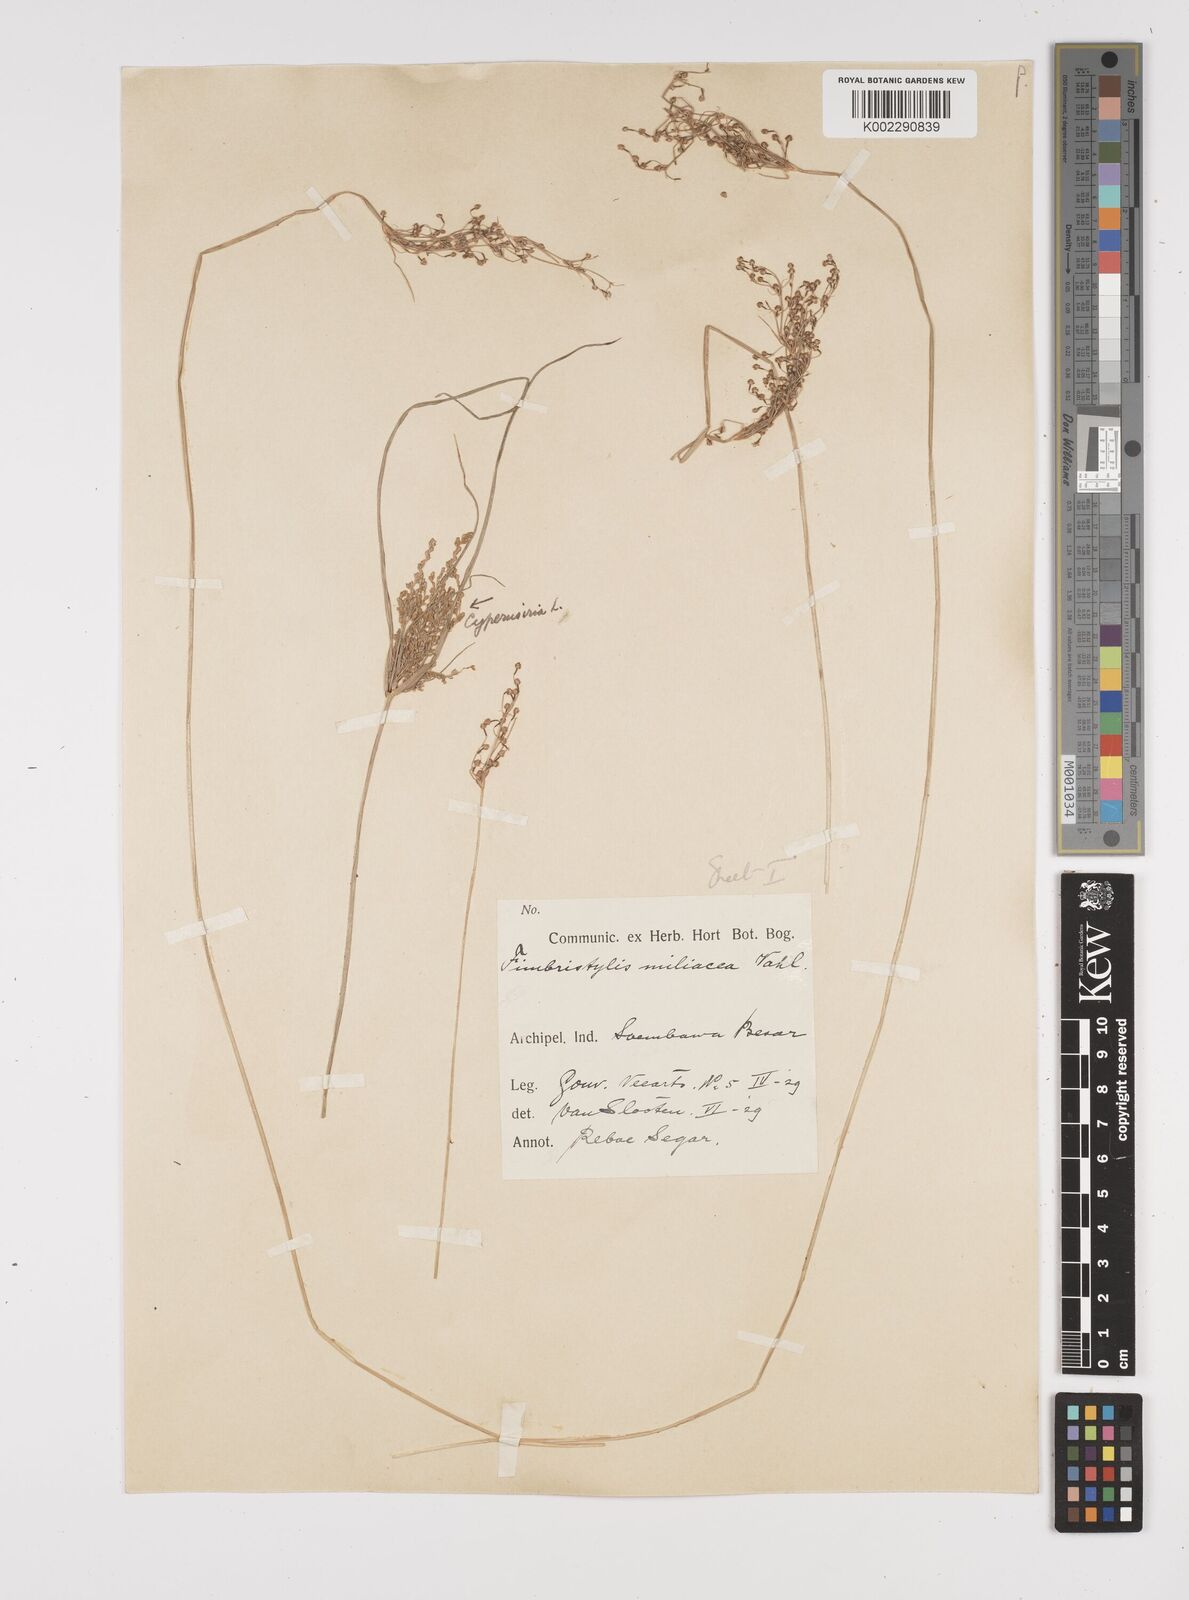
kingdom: Plantae
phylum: Tracheophyta
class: Liliopsida
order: Poales
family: Cyperaceae
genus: Fimbristylis
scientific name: Fimbristylis littoralis
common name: Fimbry
